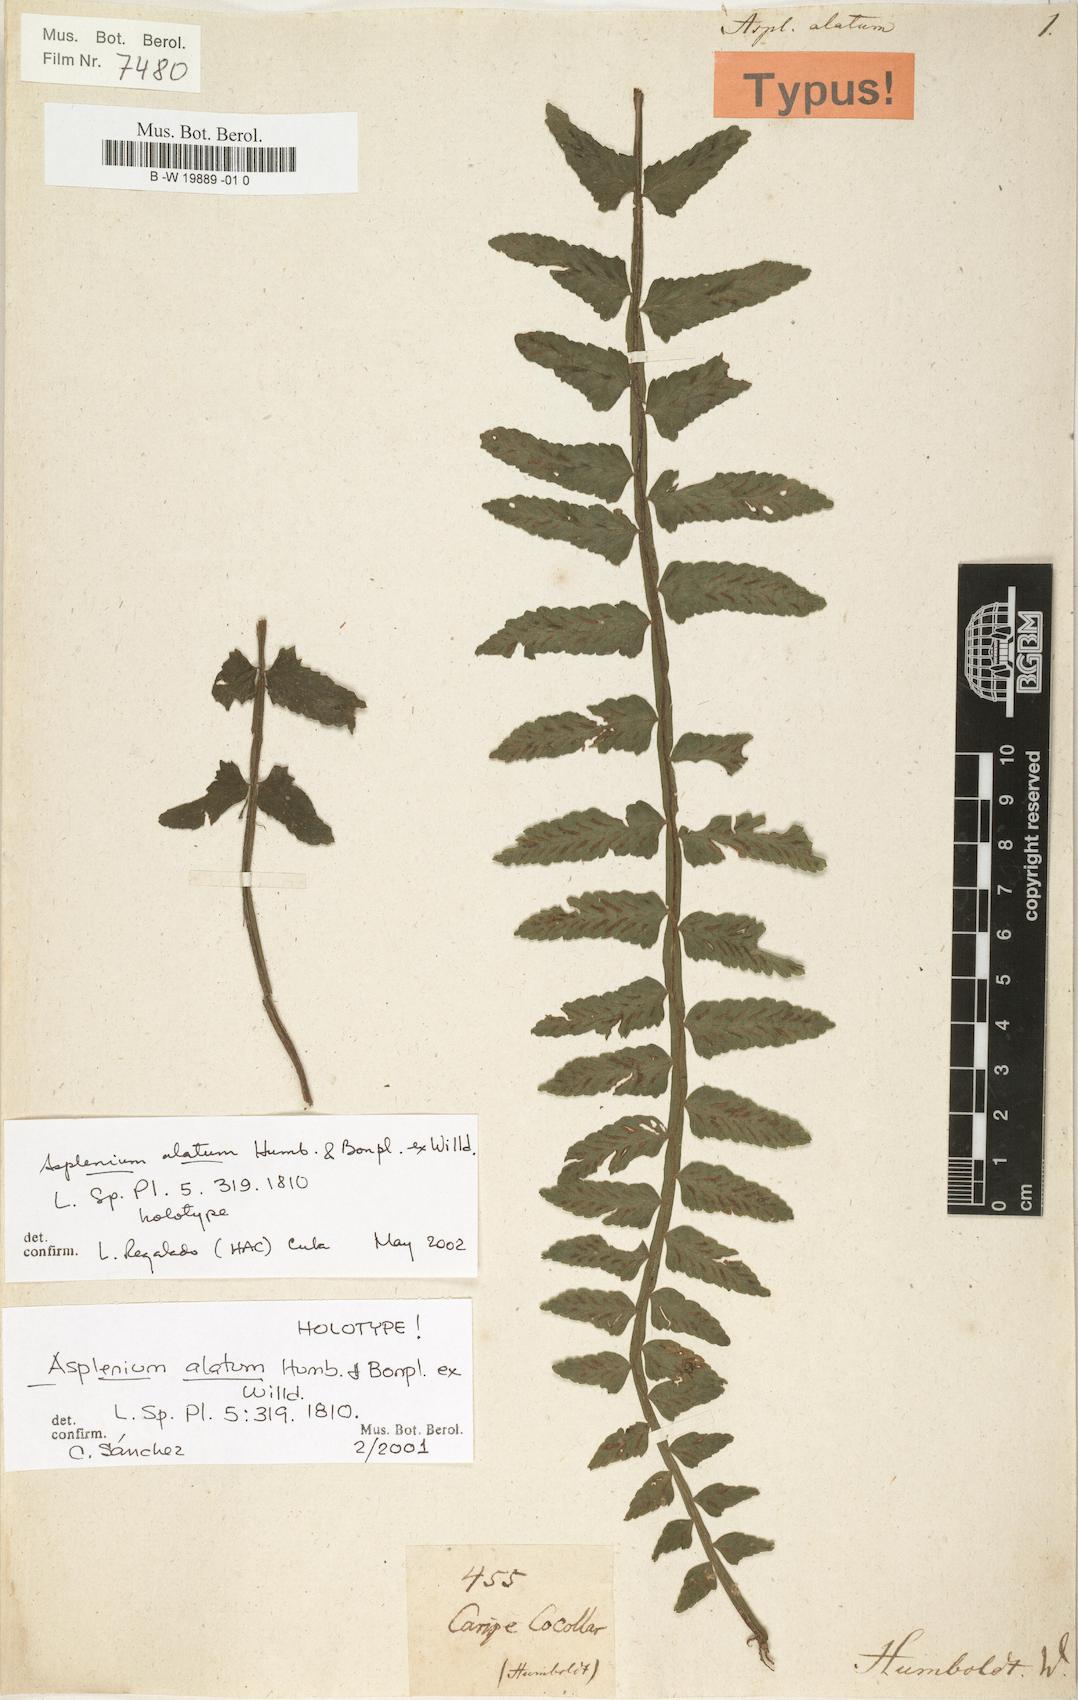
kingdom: Plantae
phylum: Tracheophyta
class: Polypodiopsida
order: Polypodiales
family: Aspleniaceae
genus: Asplenium
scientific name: Asplenium alatum
